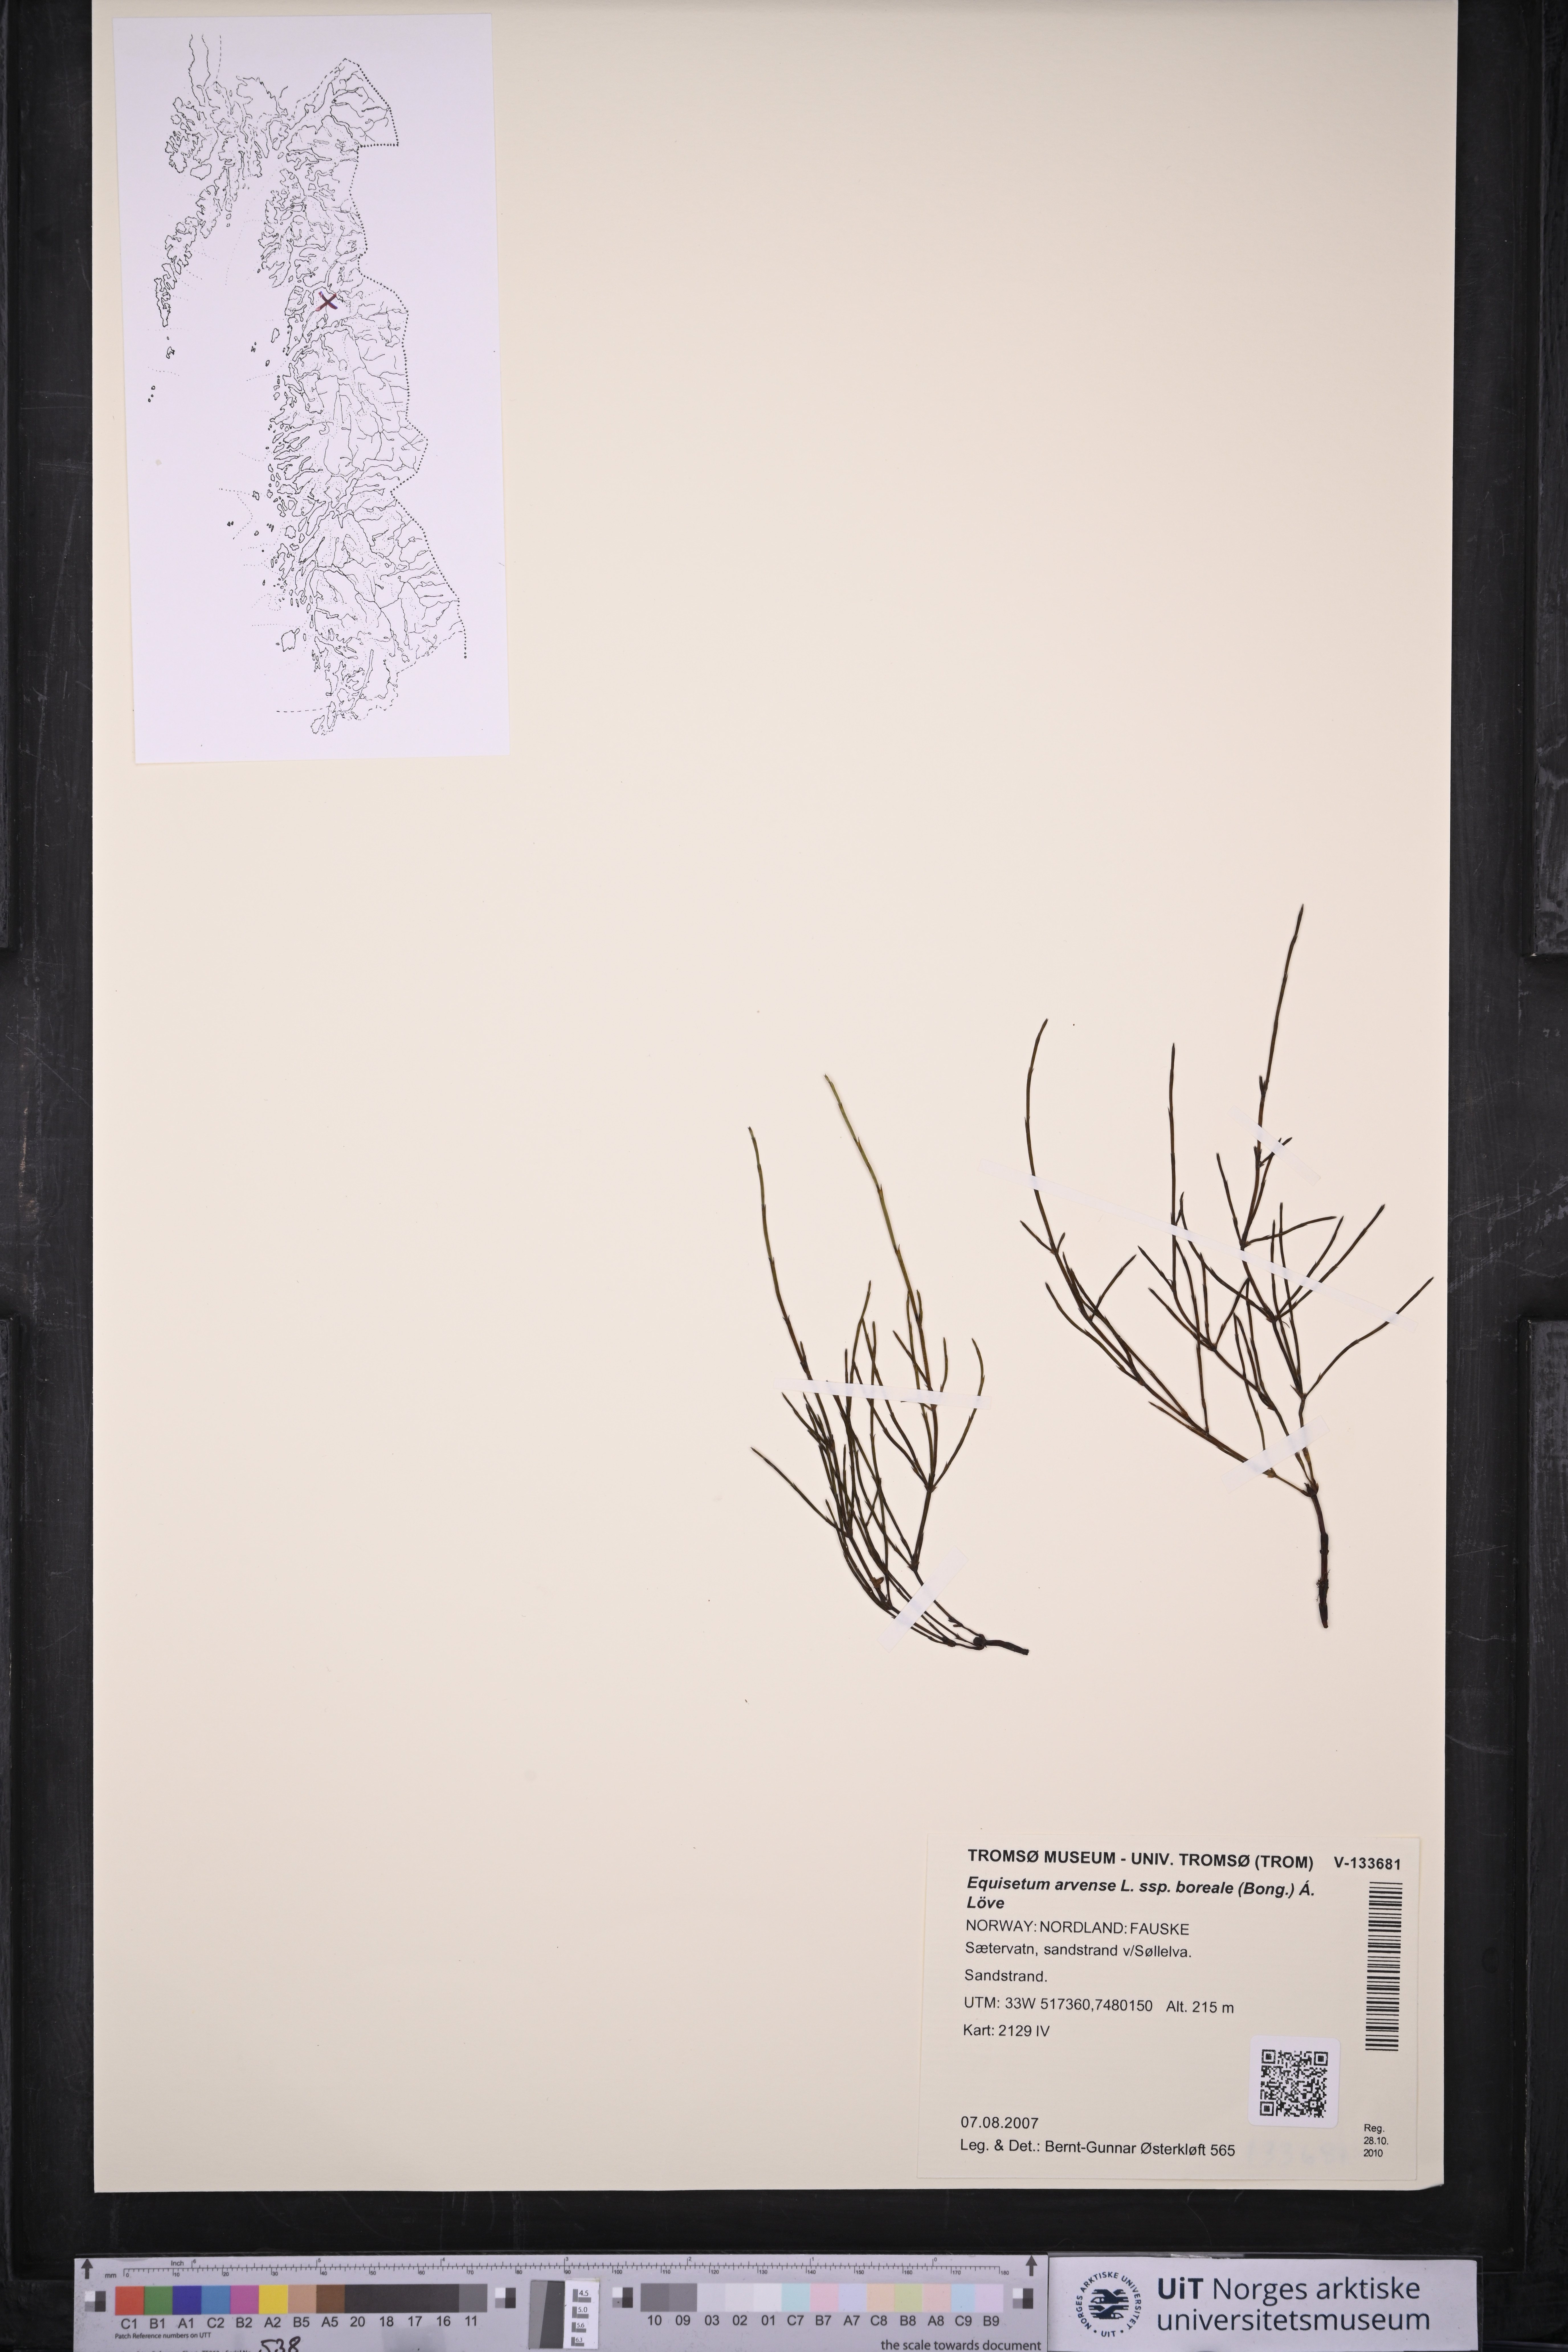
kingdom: Plantae
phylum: Tracheophyta
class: Polypodiopsida
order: Equisetales
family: Equisetaceae
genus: Equisetum
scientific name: Equisetum arvense
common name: Field horsetail
